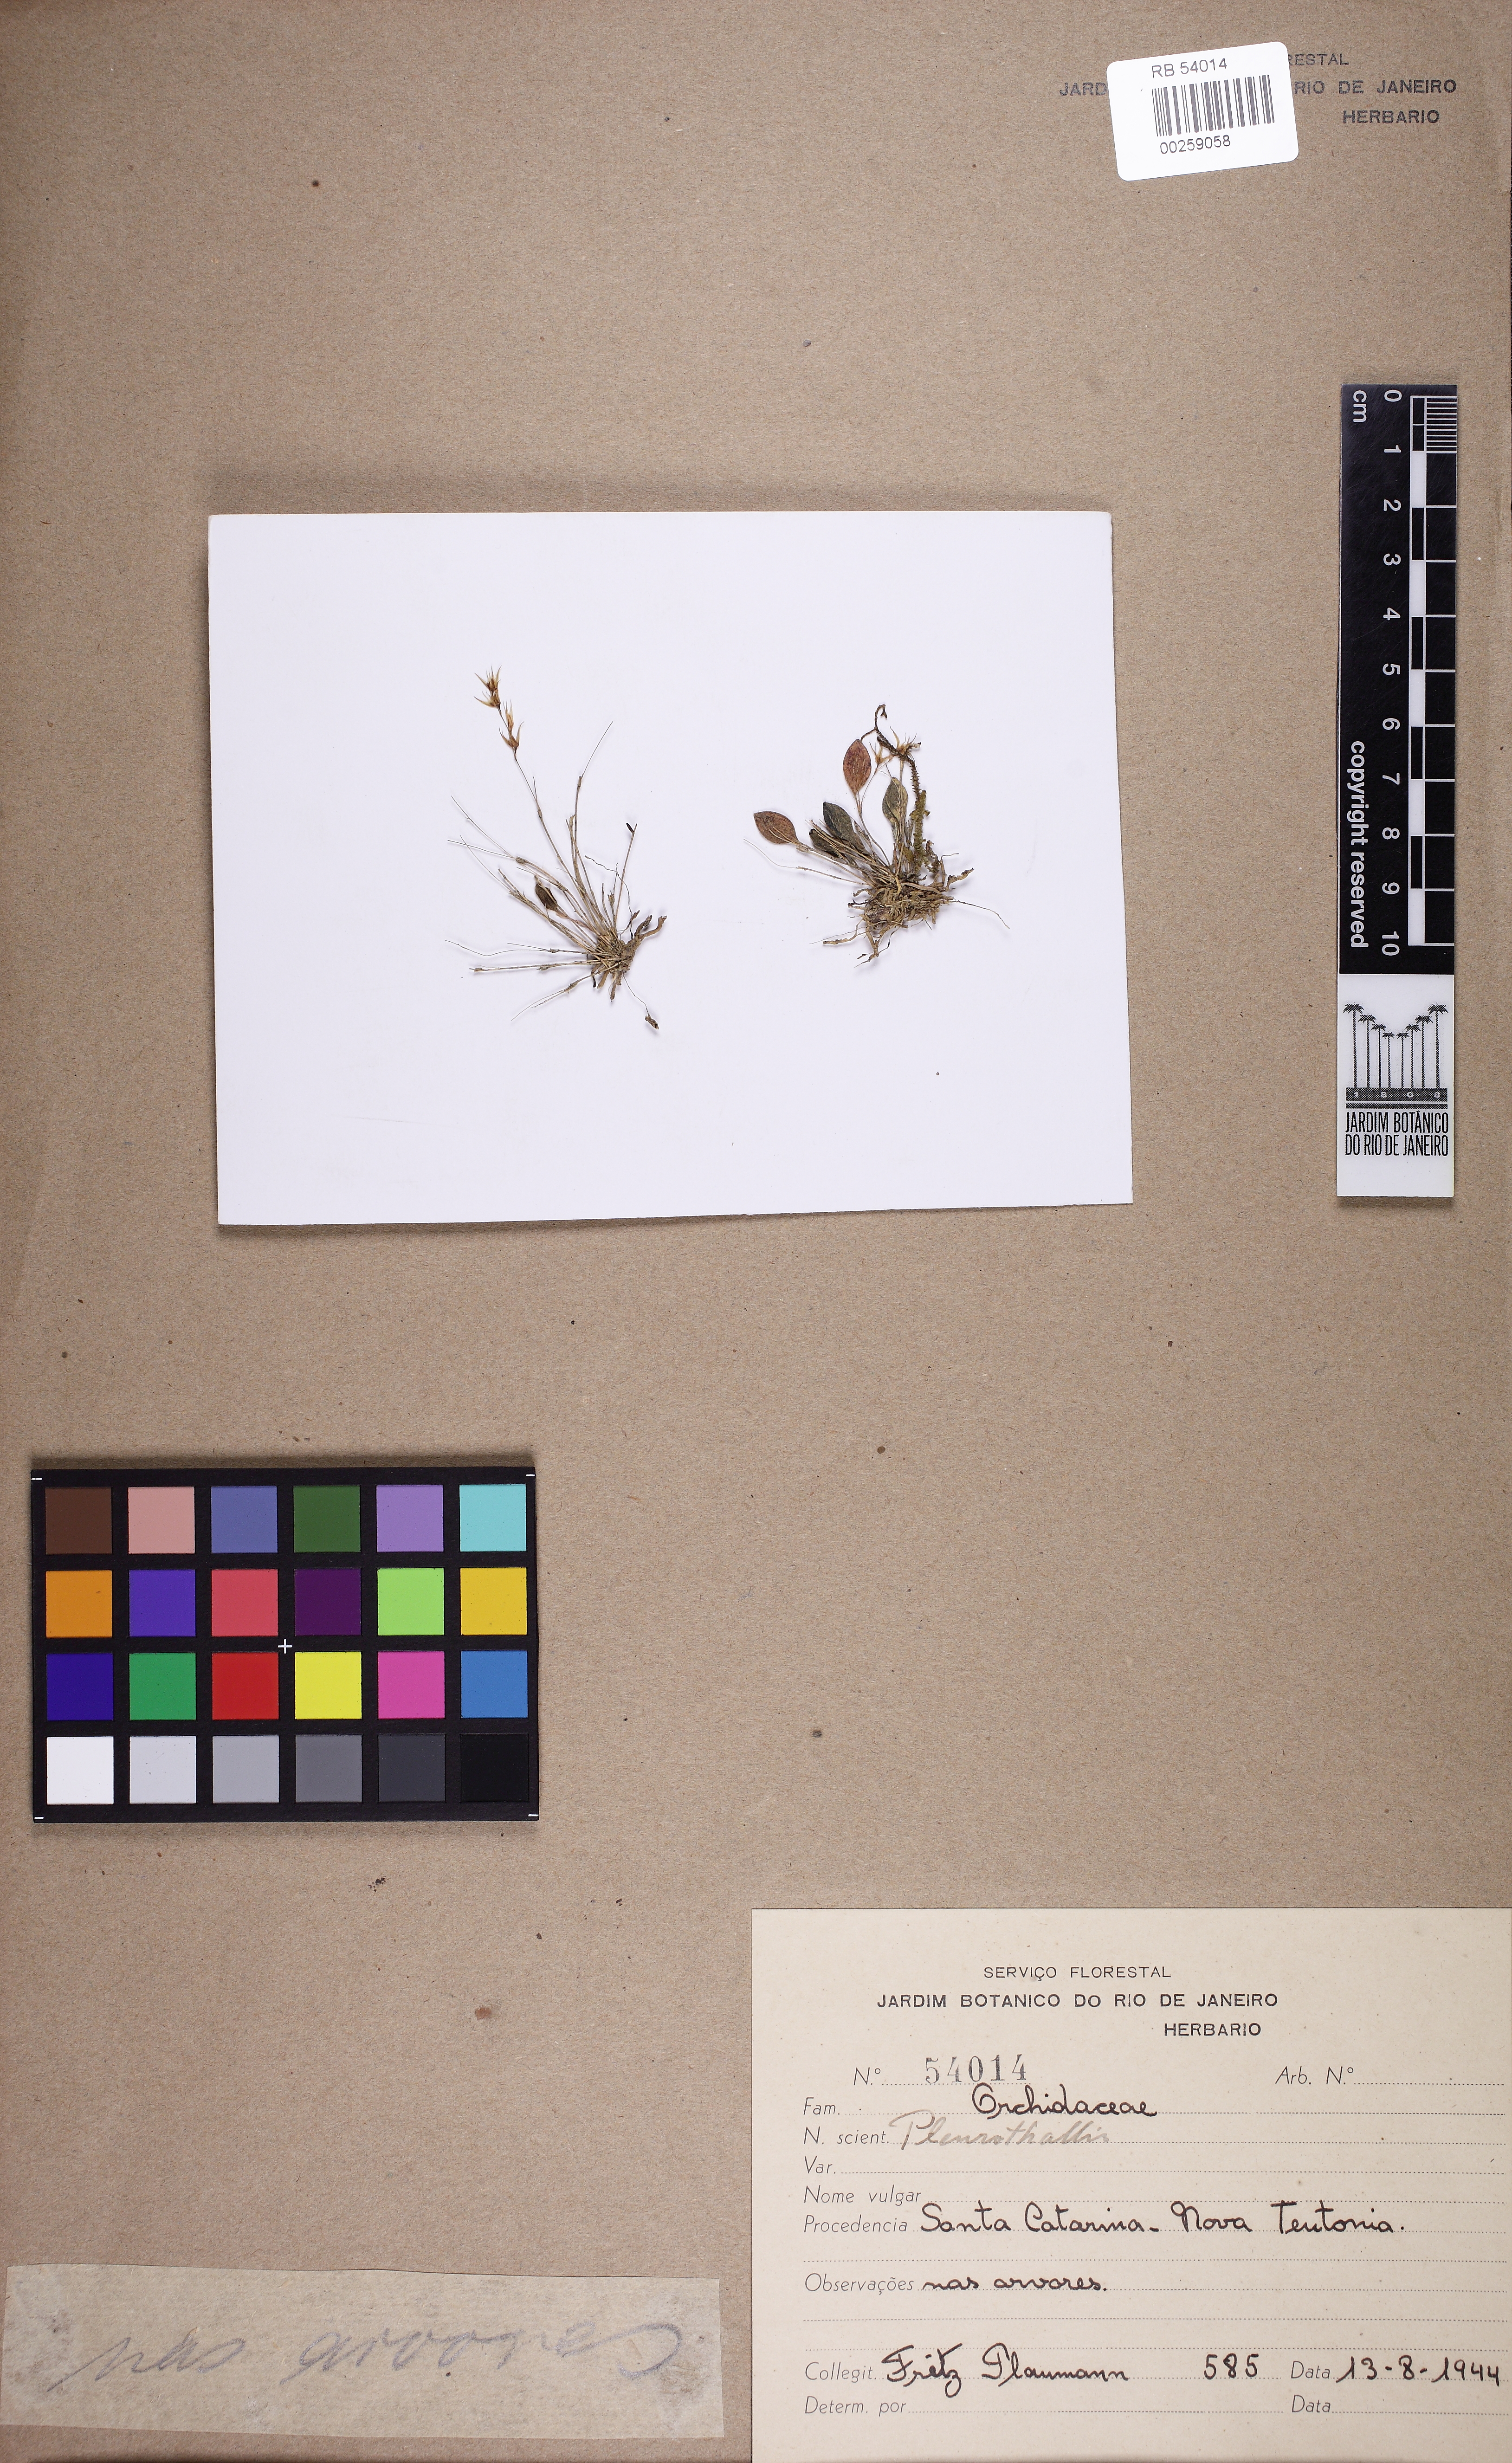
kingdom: Plantae
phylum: Tracheophyta
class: Liliopsida
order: Asparagales
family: Orchidaceae
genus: Anathallis
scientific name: Anathallis dryadum
